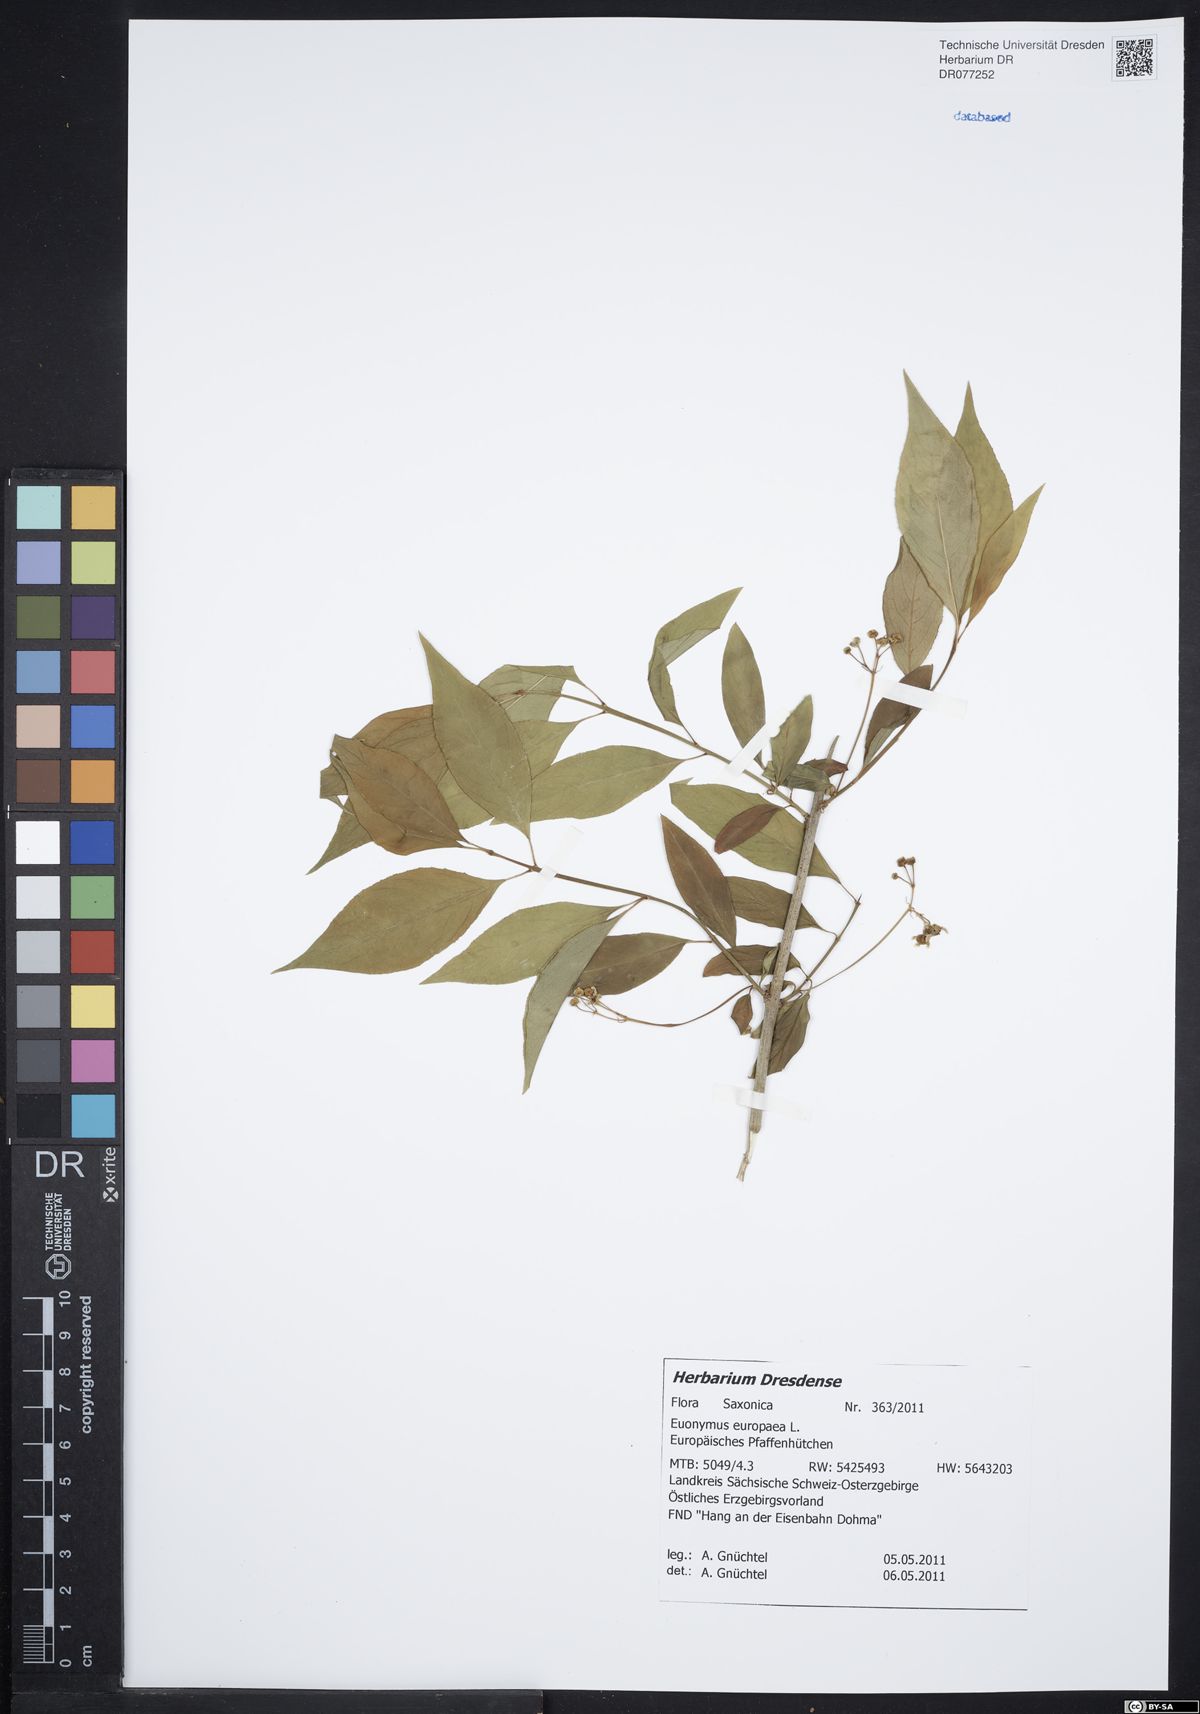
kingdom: Plantae
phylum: Tracheophyta
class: Magnoliopsida
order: Celastrales
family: Celastraceae
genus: Euonymus
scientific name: Euonymus europaeus
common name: Spindle
